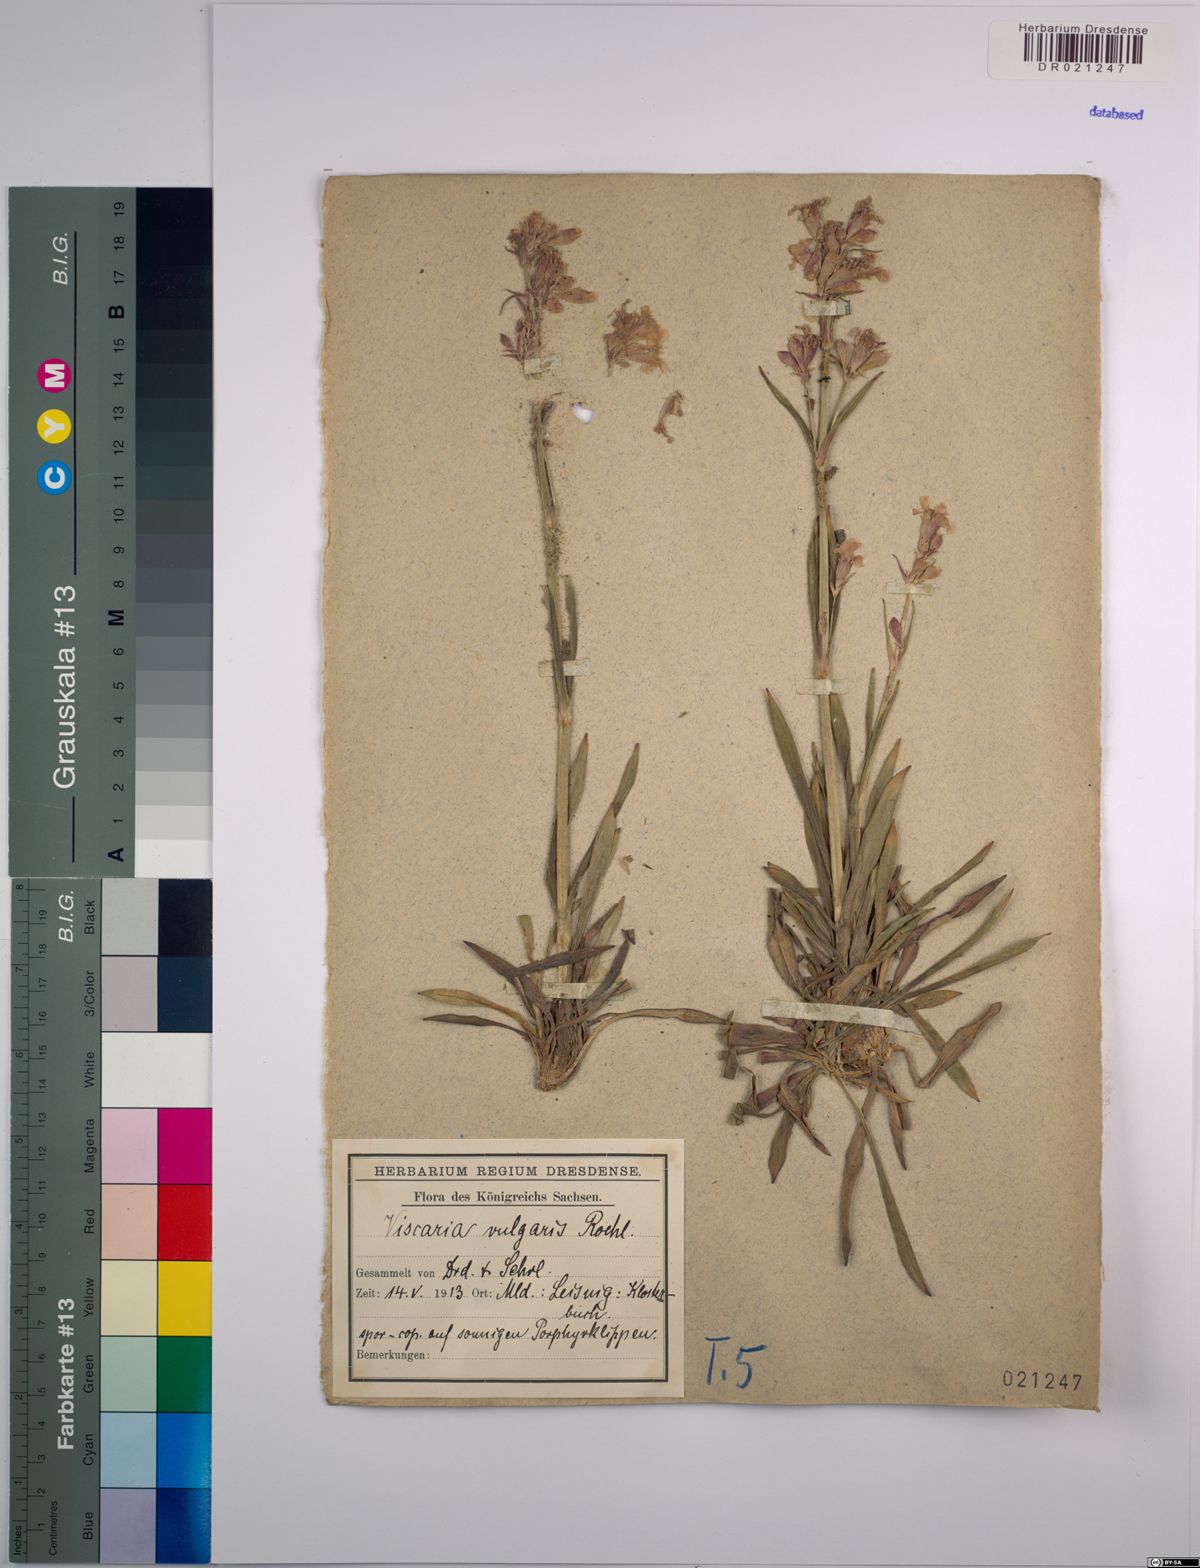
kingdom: Plantae
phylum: Tracheophyta
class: Magnoliopsida
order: Caryophyllales
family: Caryophyllaceae
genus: Viscaria
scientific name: Viscaria vulgaris
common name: Clammy campion
